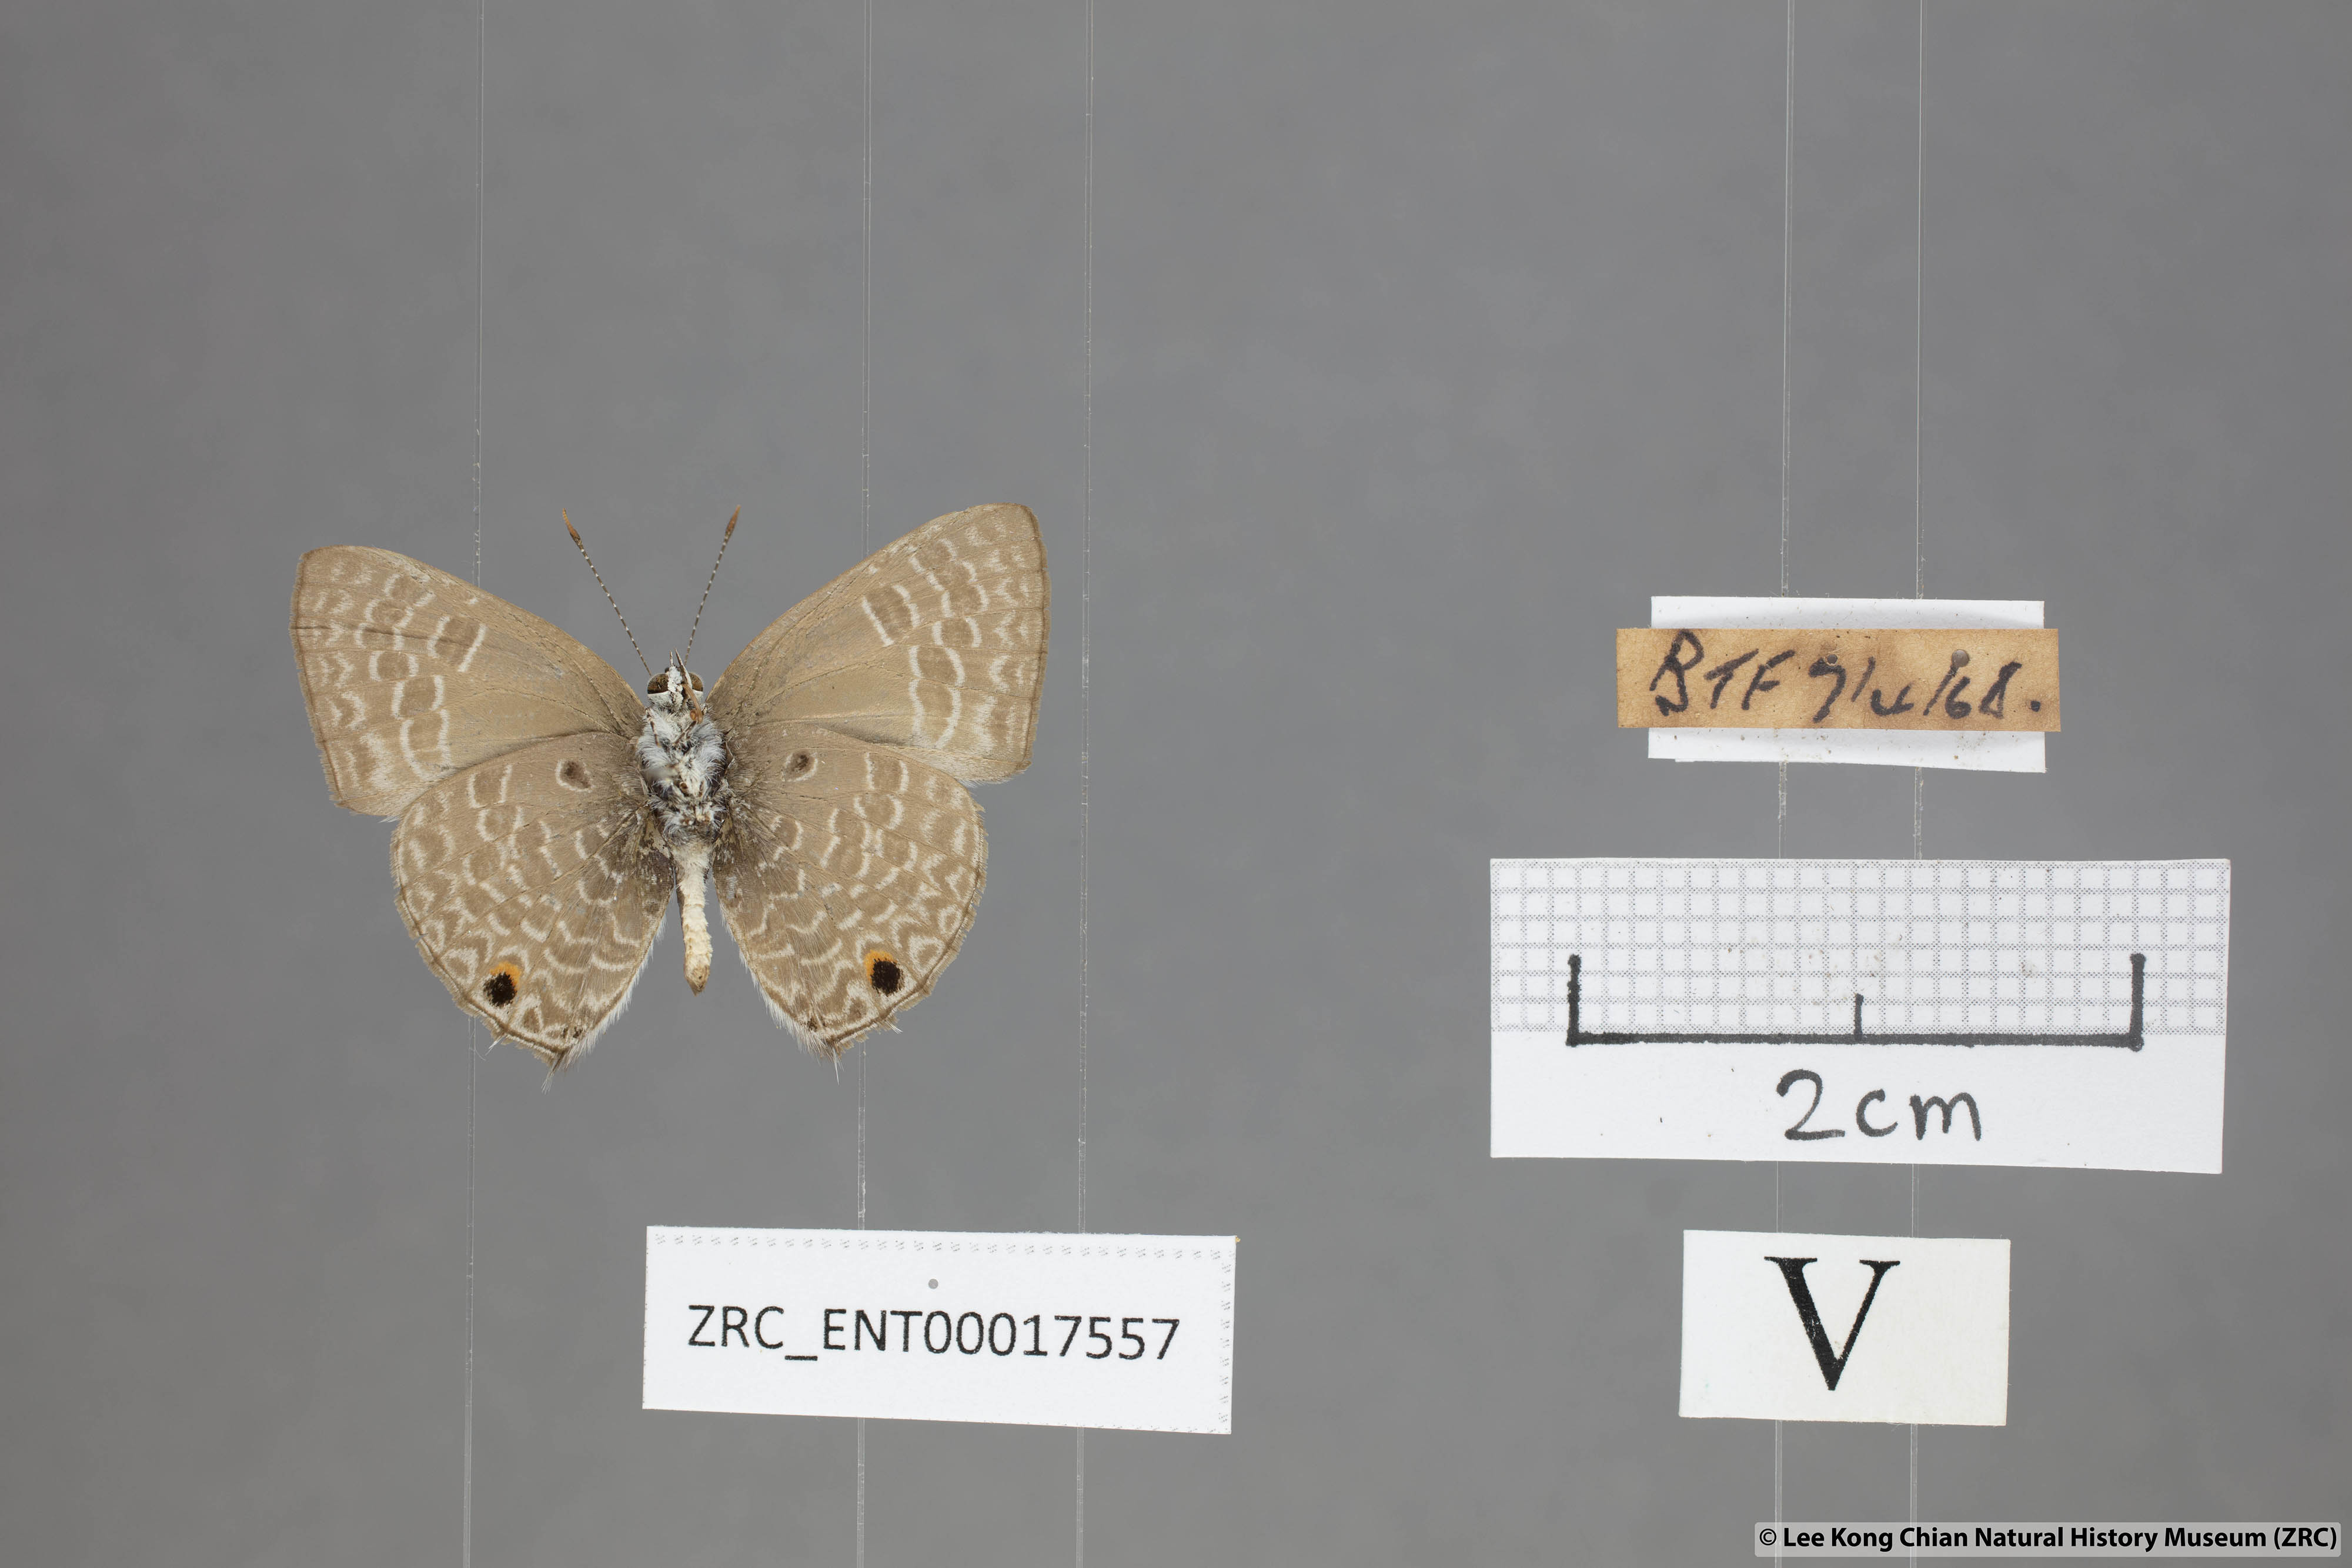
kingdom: Animalia
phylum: Arthropoda
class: Insecta
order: Lepidoptera
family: Lycaenidae
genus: Anthene
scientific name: Anthene lycaenoides
